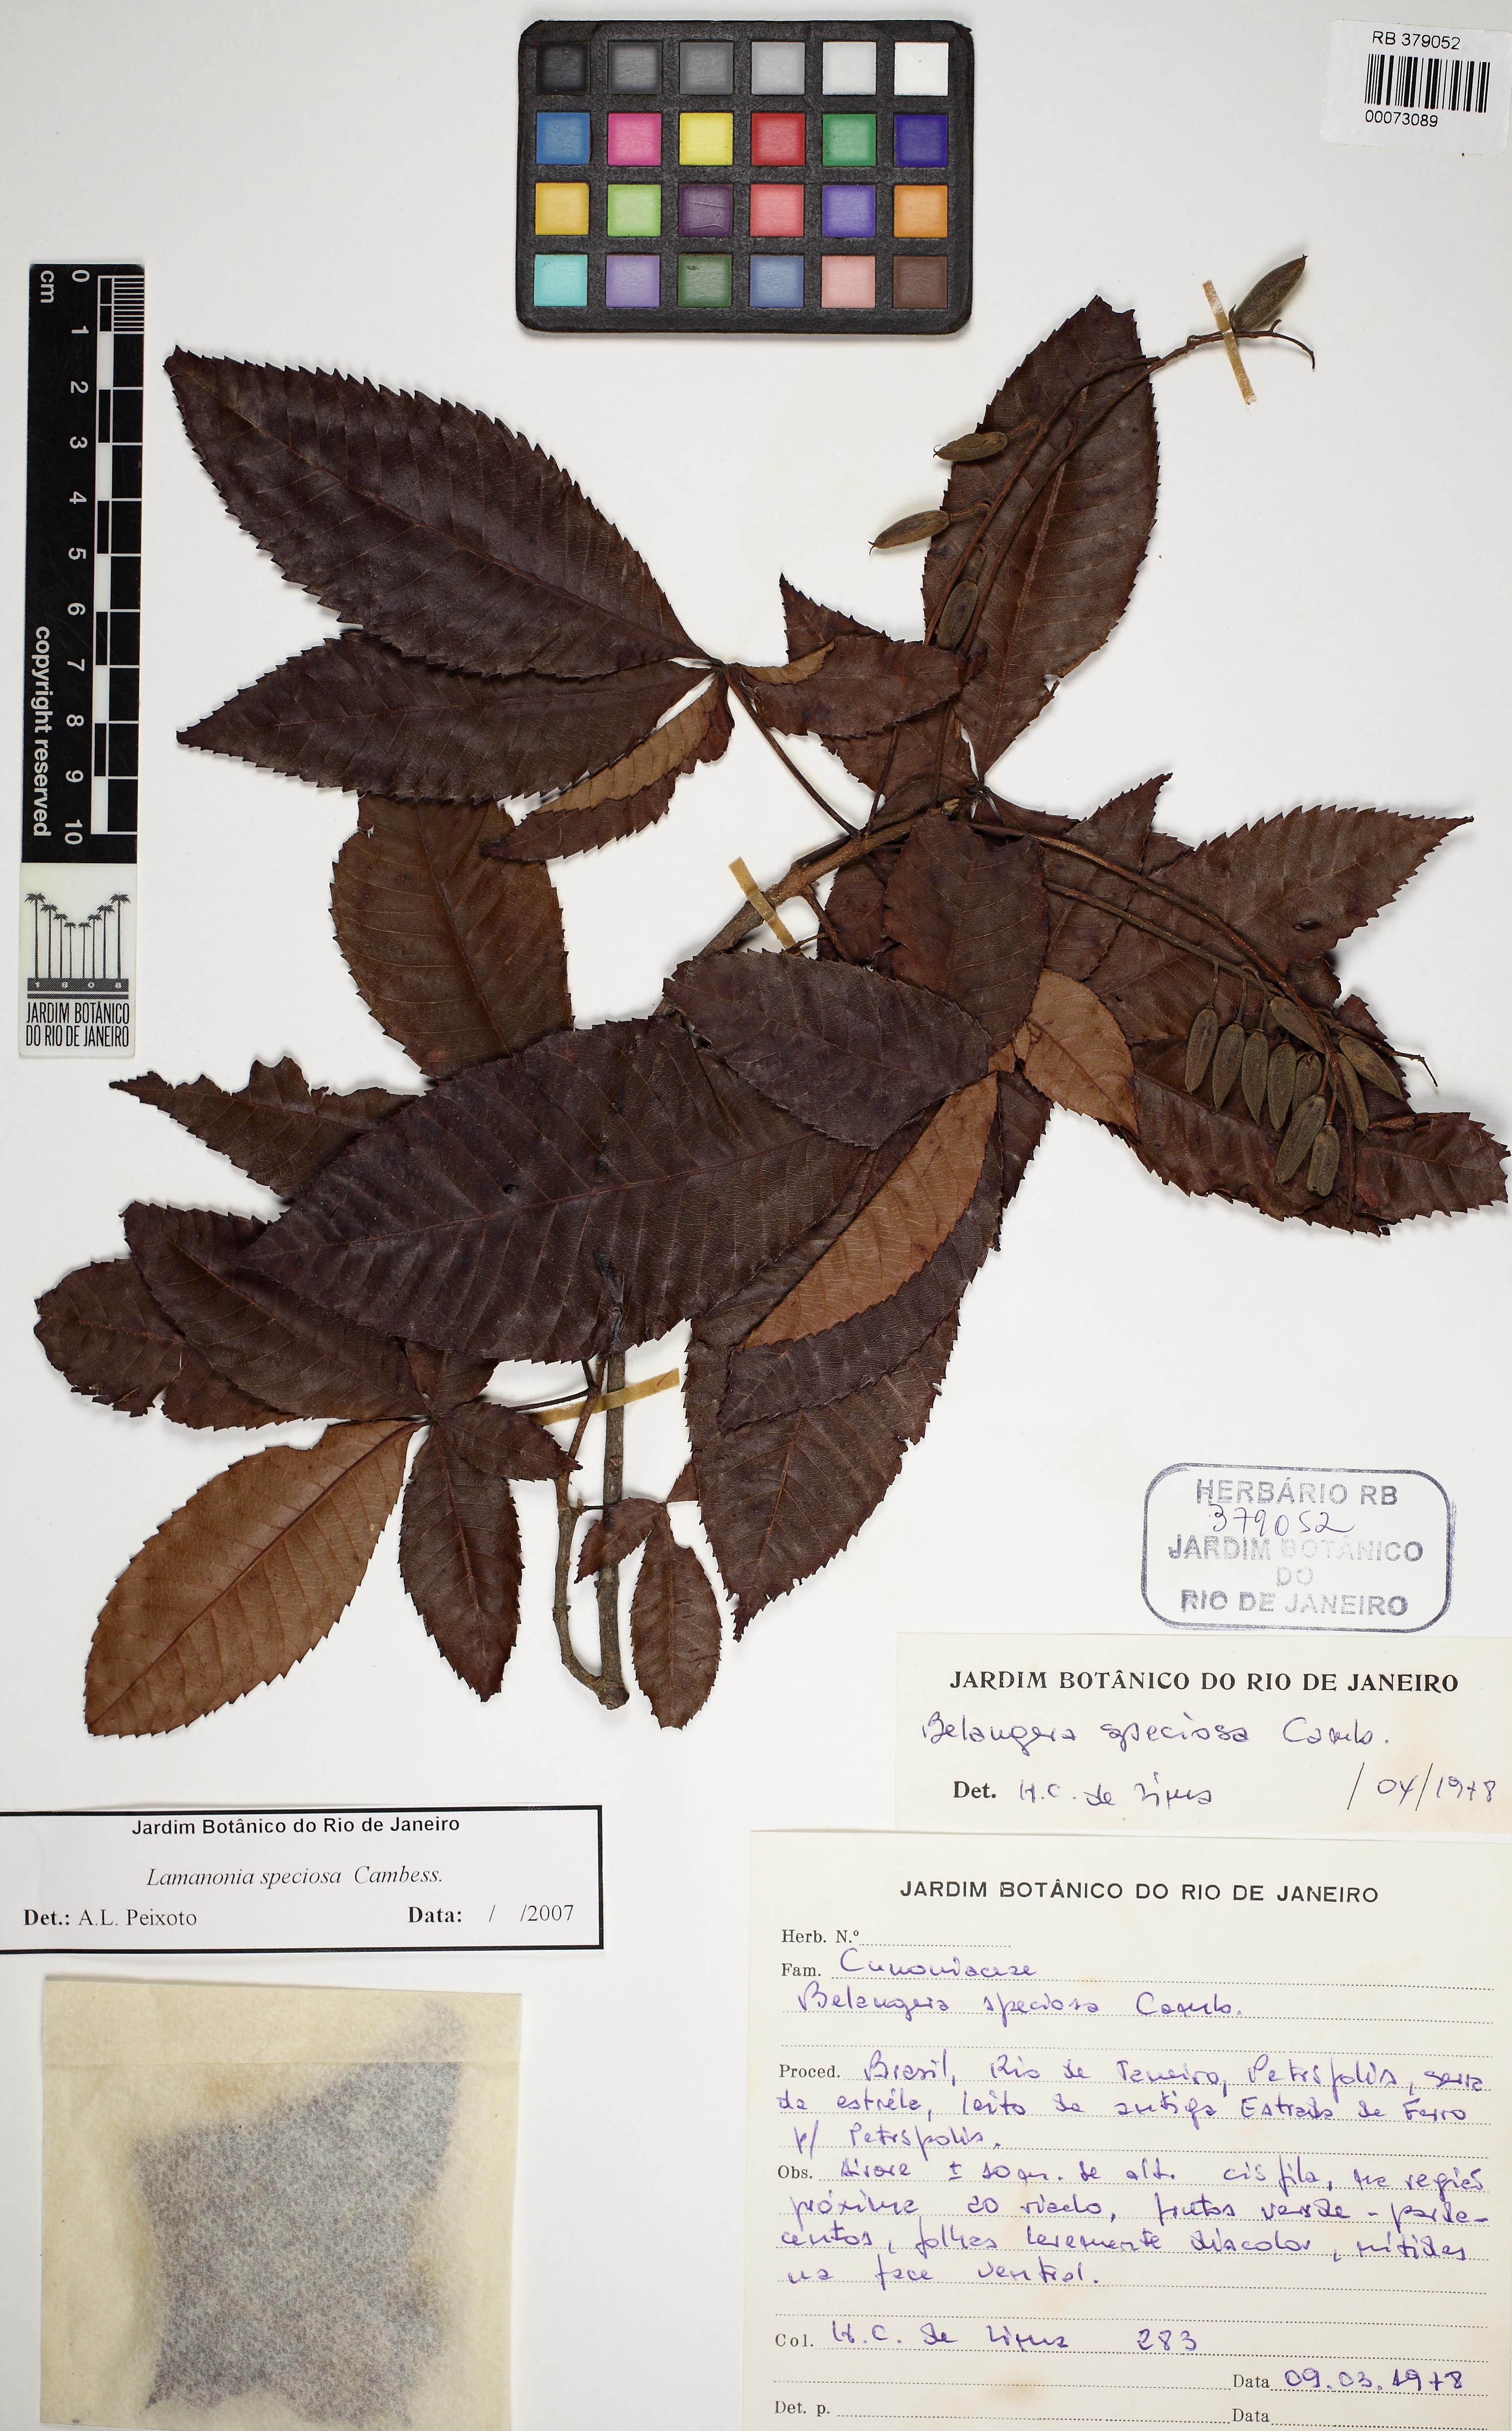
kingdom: Plantae
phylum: Tracheophyta
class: Magnoliopsida
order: Oxalidales
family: Cunoniaceae
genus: Lamanonia
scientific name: Lamanonia ternata
